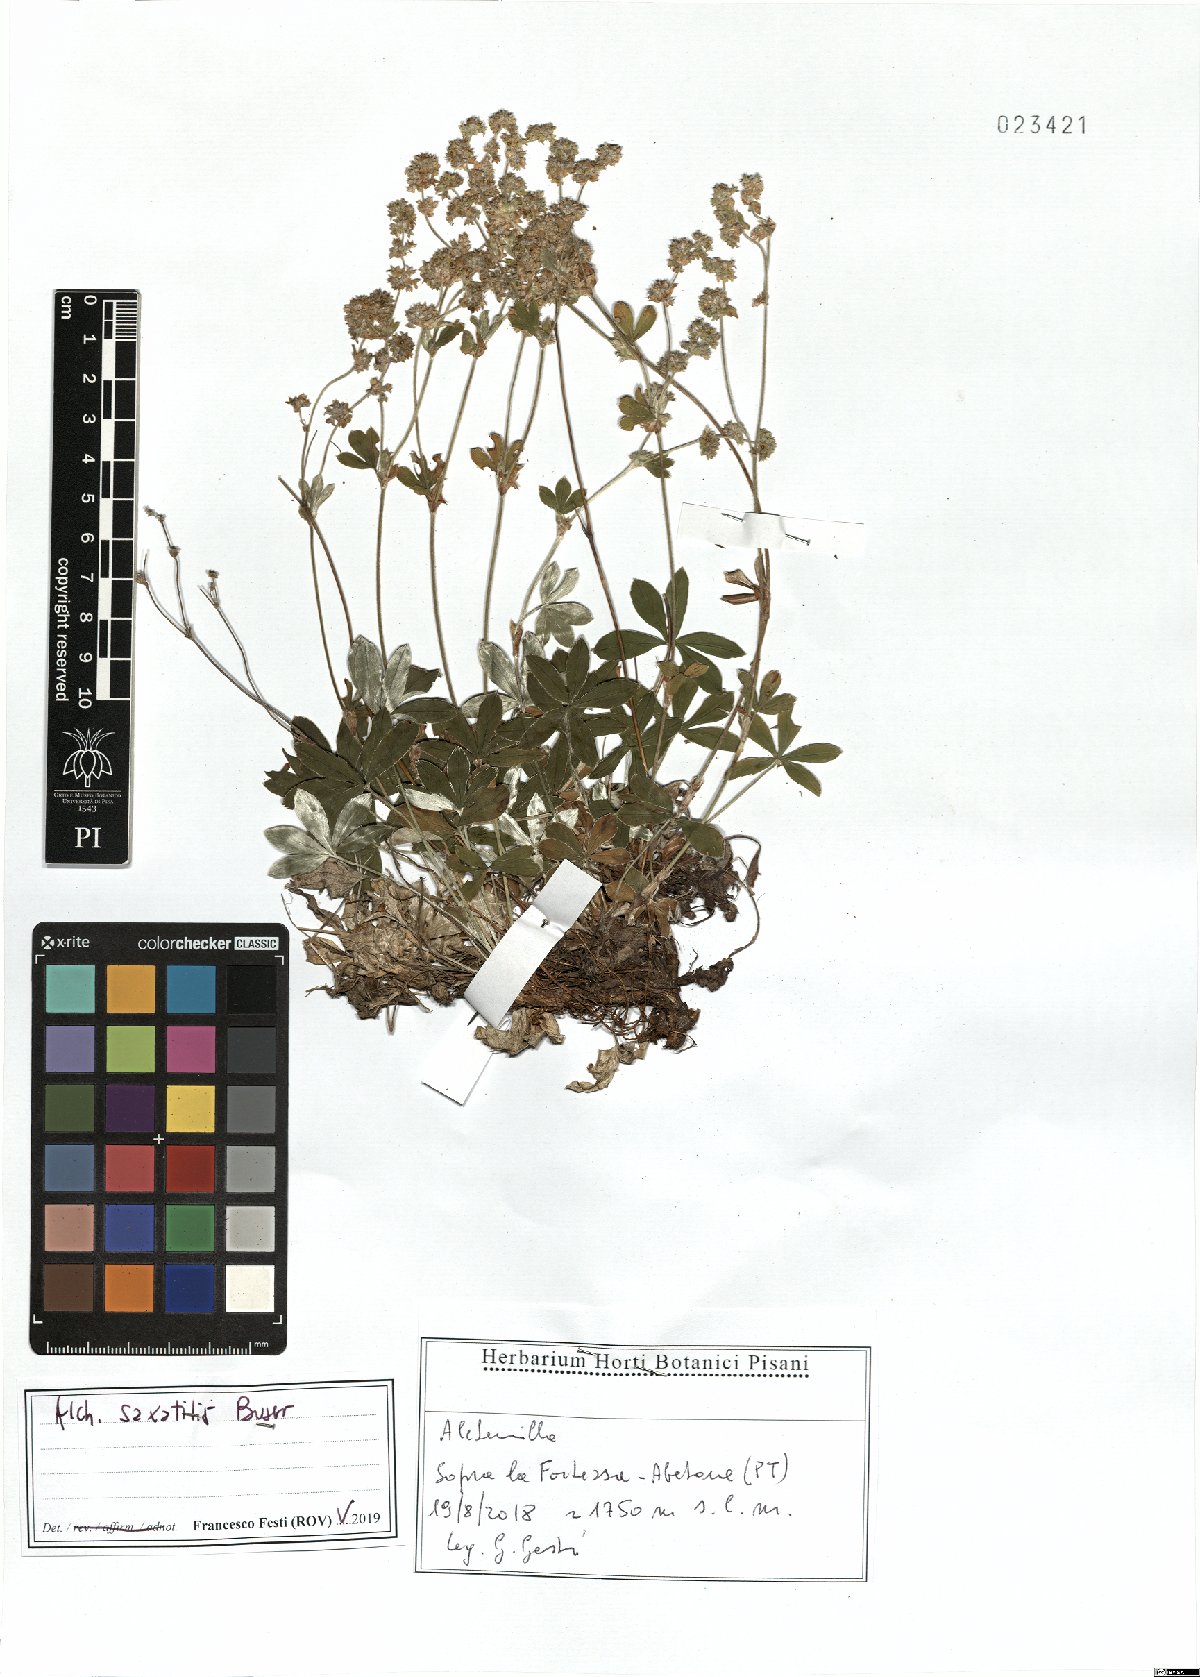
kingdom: Plantae
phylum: Tracheophyta
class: Magnoliopsida
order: Rosales
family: Rosaceae
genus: Alchemilla
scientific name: Alchemilla saxatilis
